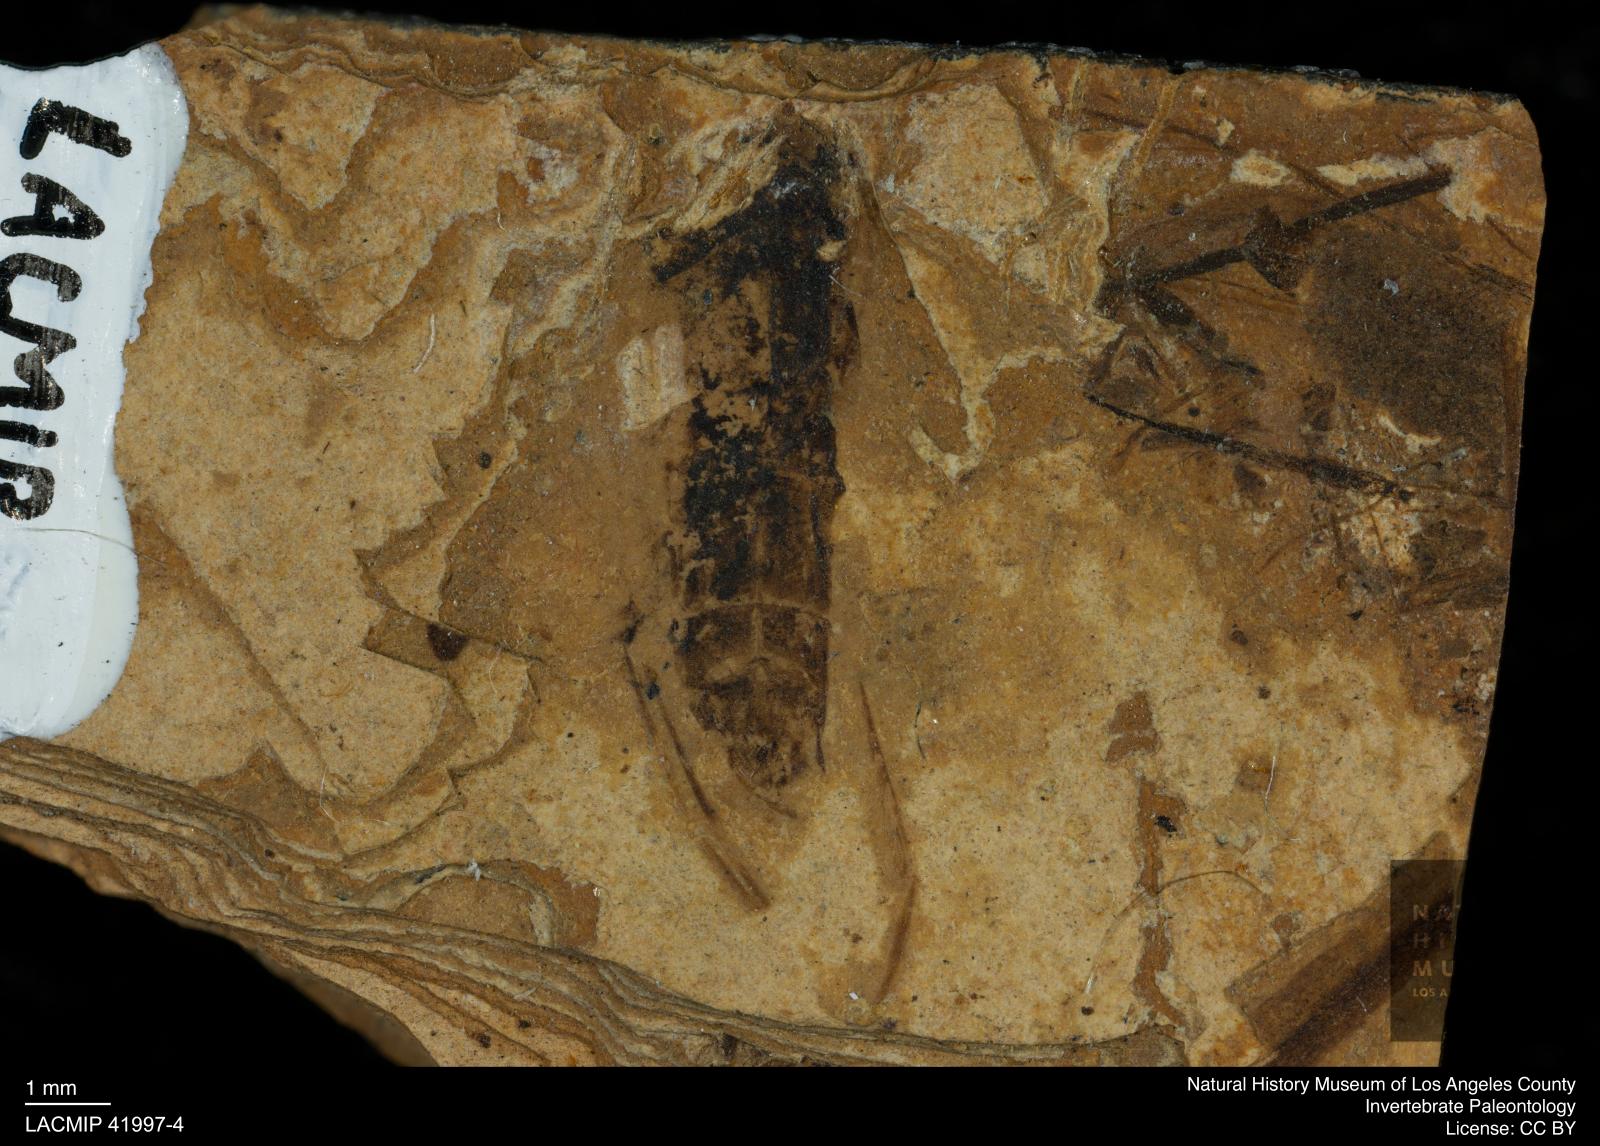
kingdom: Animalia
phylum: Arthropoda
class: Insecta
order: Hemiptera
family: Notonectidae
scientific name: Notonectidae
